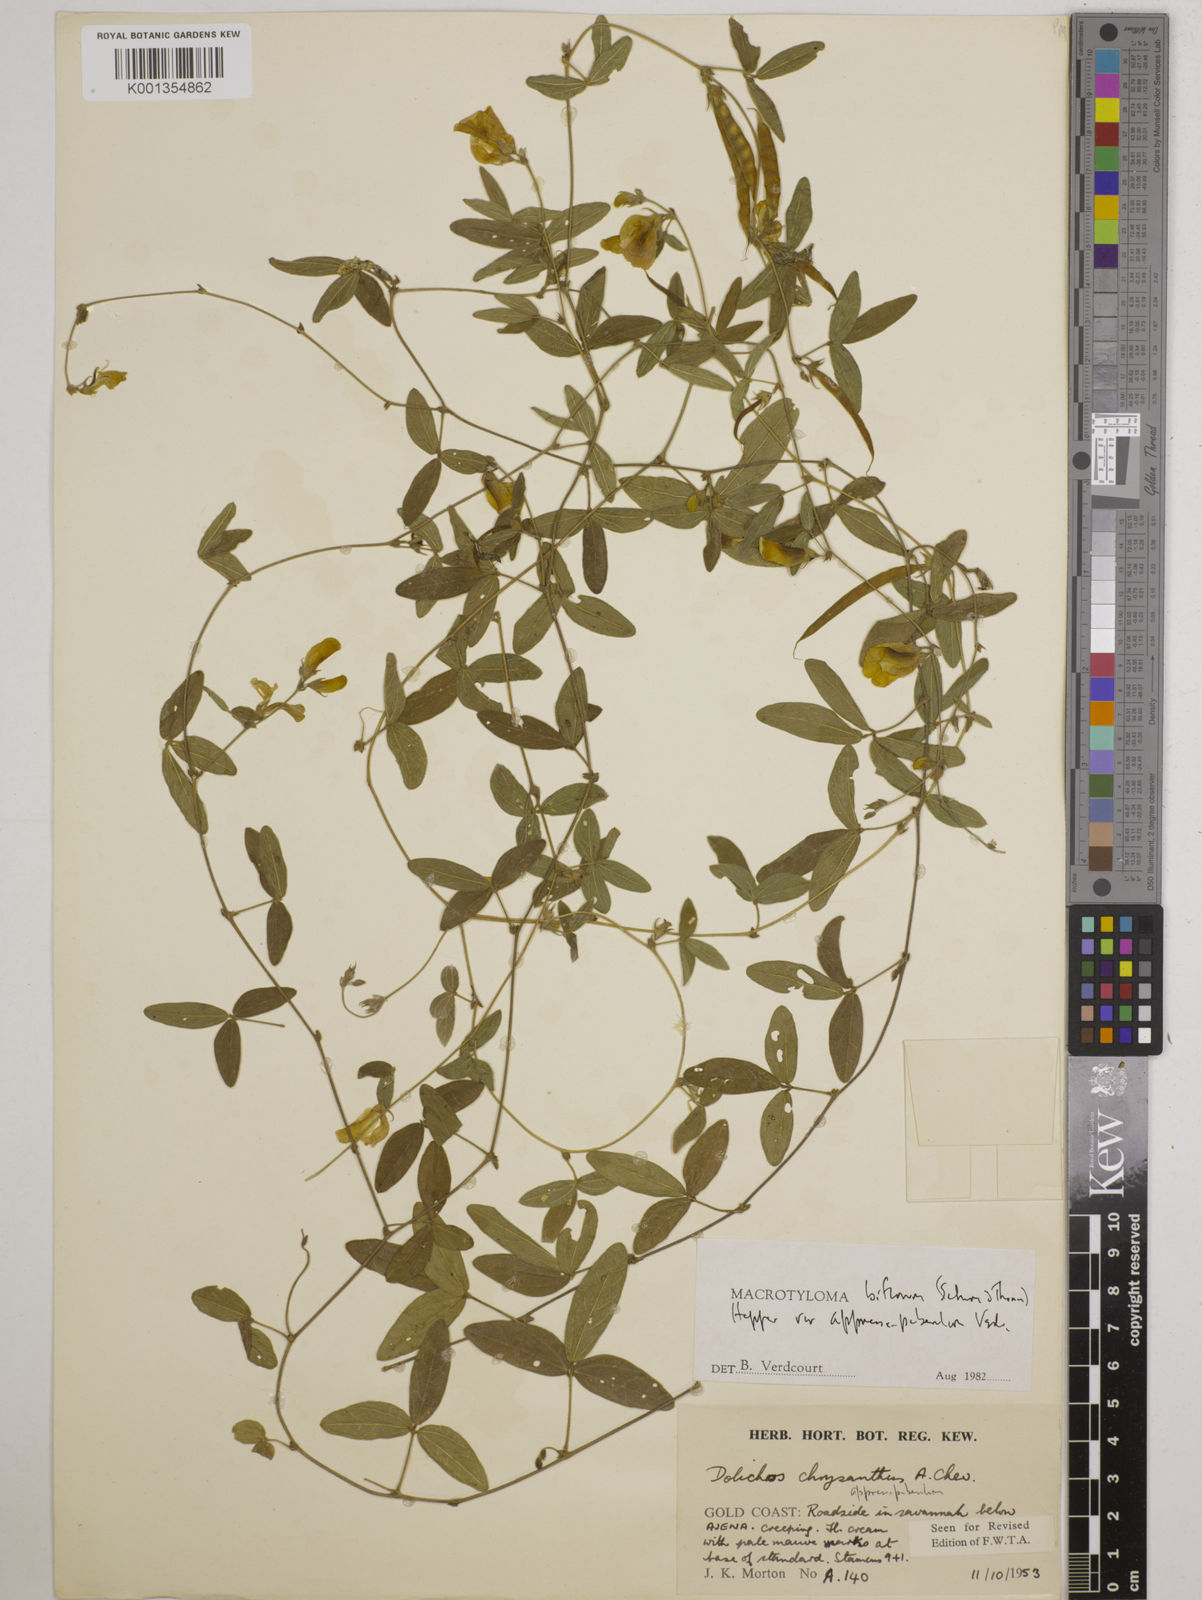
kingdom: Plantae
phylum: Tracheophyta
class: Magnoliopsida
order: Fabales
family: Fabaceae
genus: Macrotyloma
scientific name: Macrotyloma biflorum
